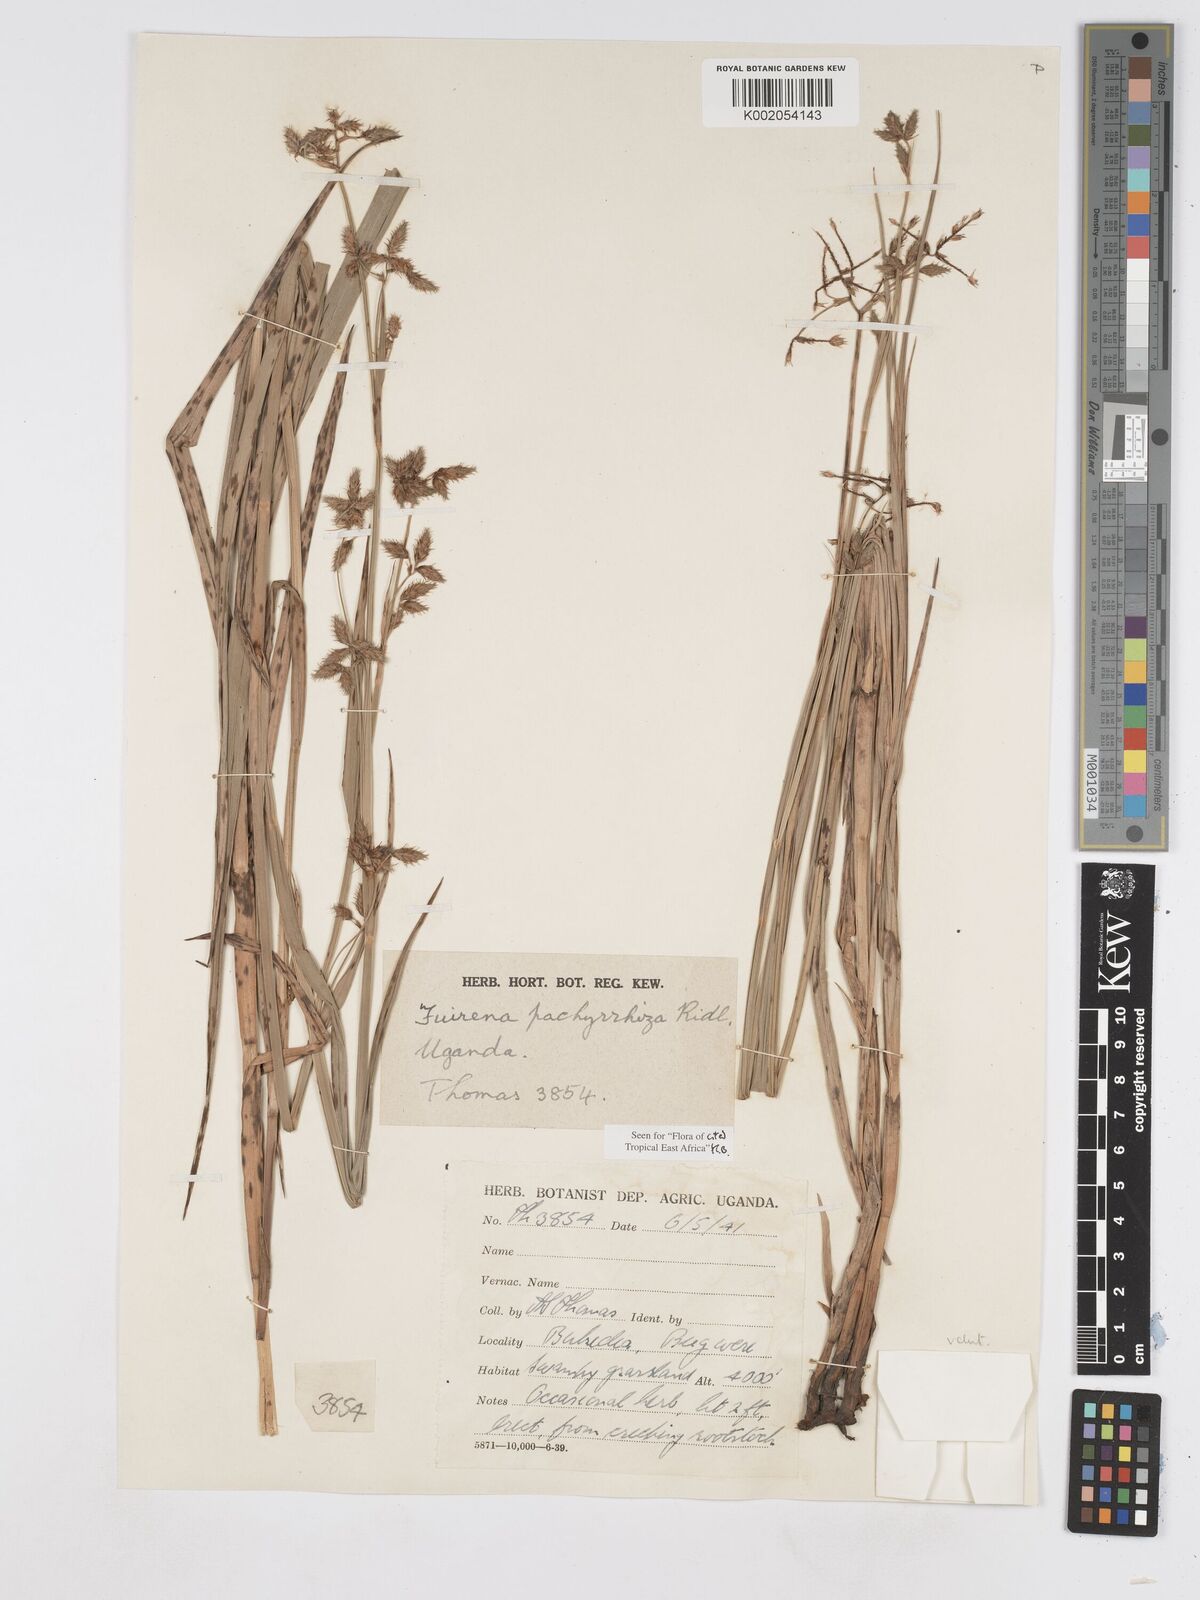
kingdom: Plantae
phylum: Tracheophyta
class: Liliopsida
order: Poales
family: Cyperaceae
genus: Fuirena
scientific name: Fuirena pachyrrhiza
